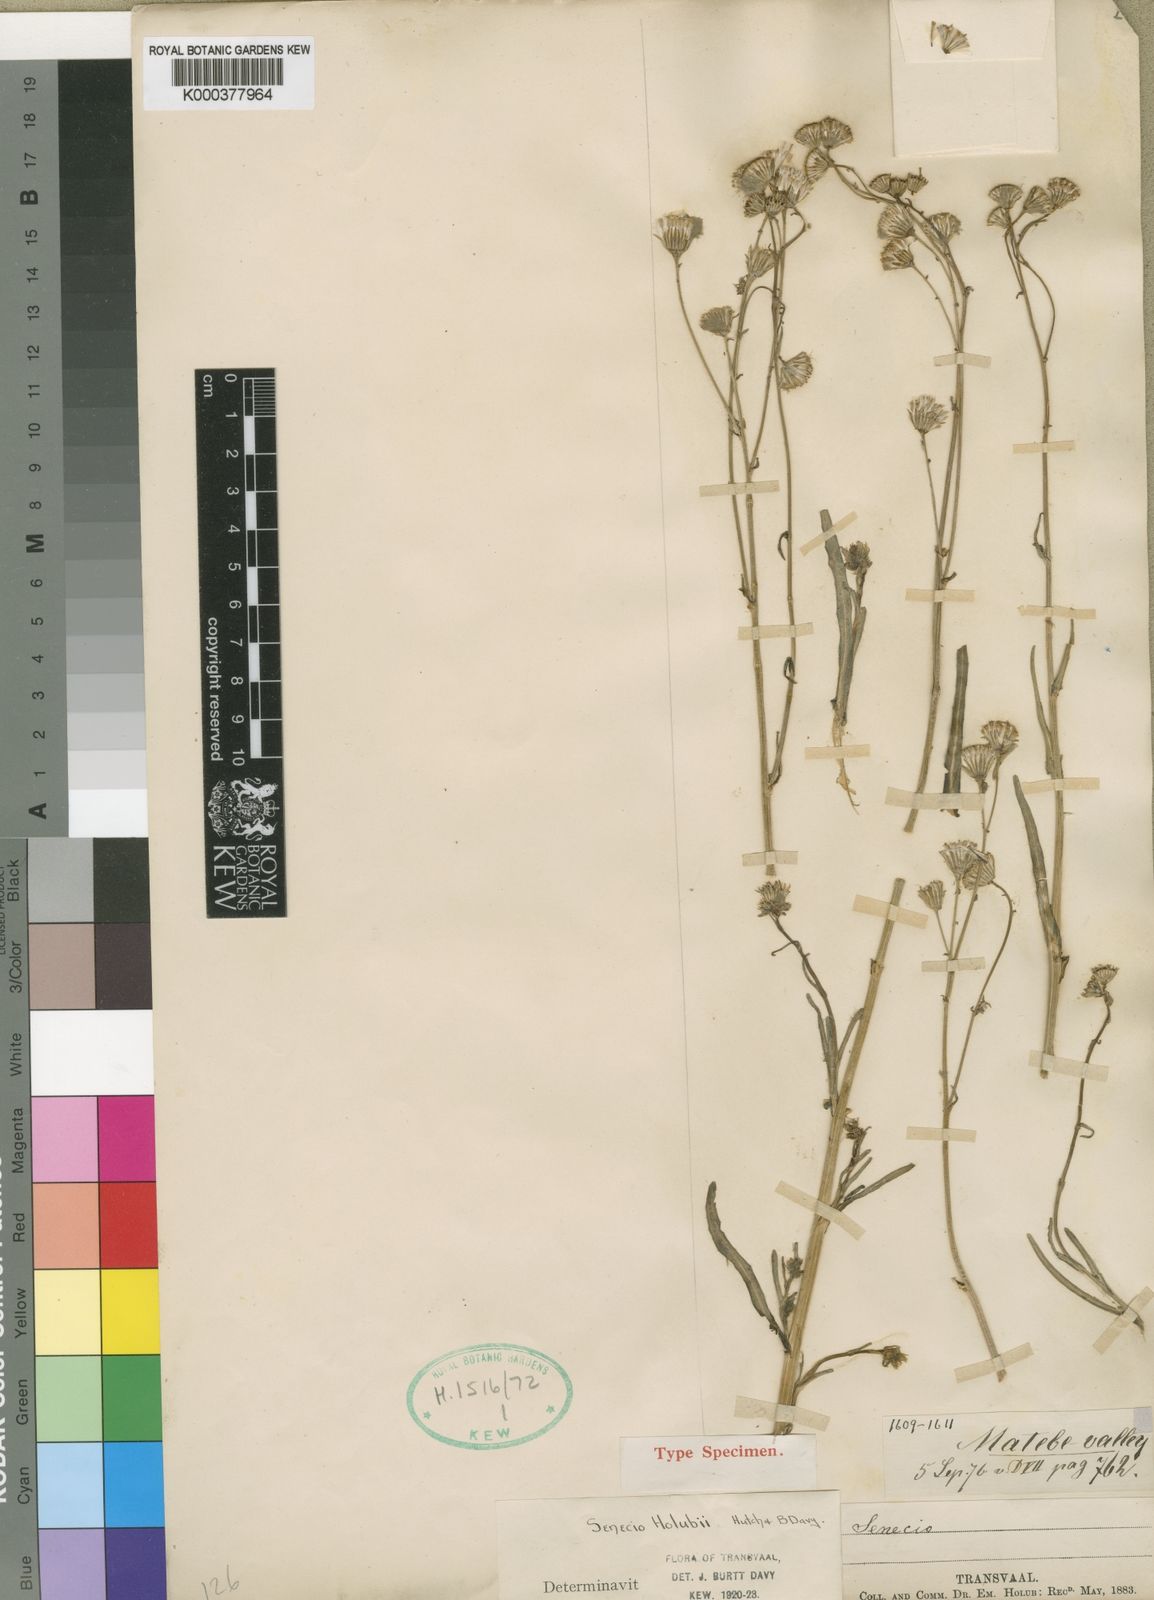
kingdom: Plantae
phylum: Tracheophyta
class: Magnoliopsida
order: Asterales
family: Asteraceae
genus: Senecio
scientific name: Senecio holubii
